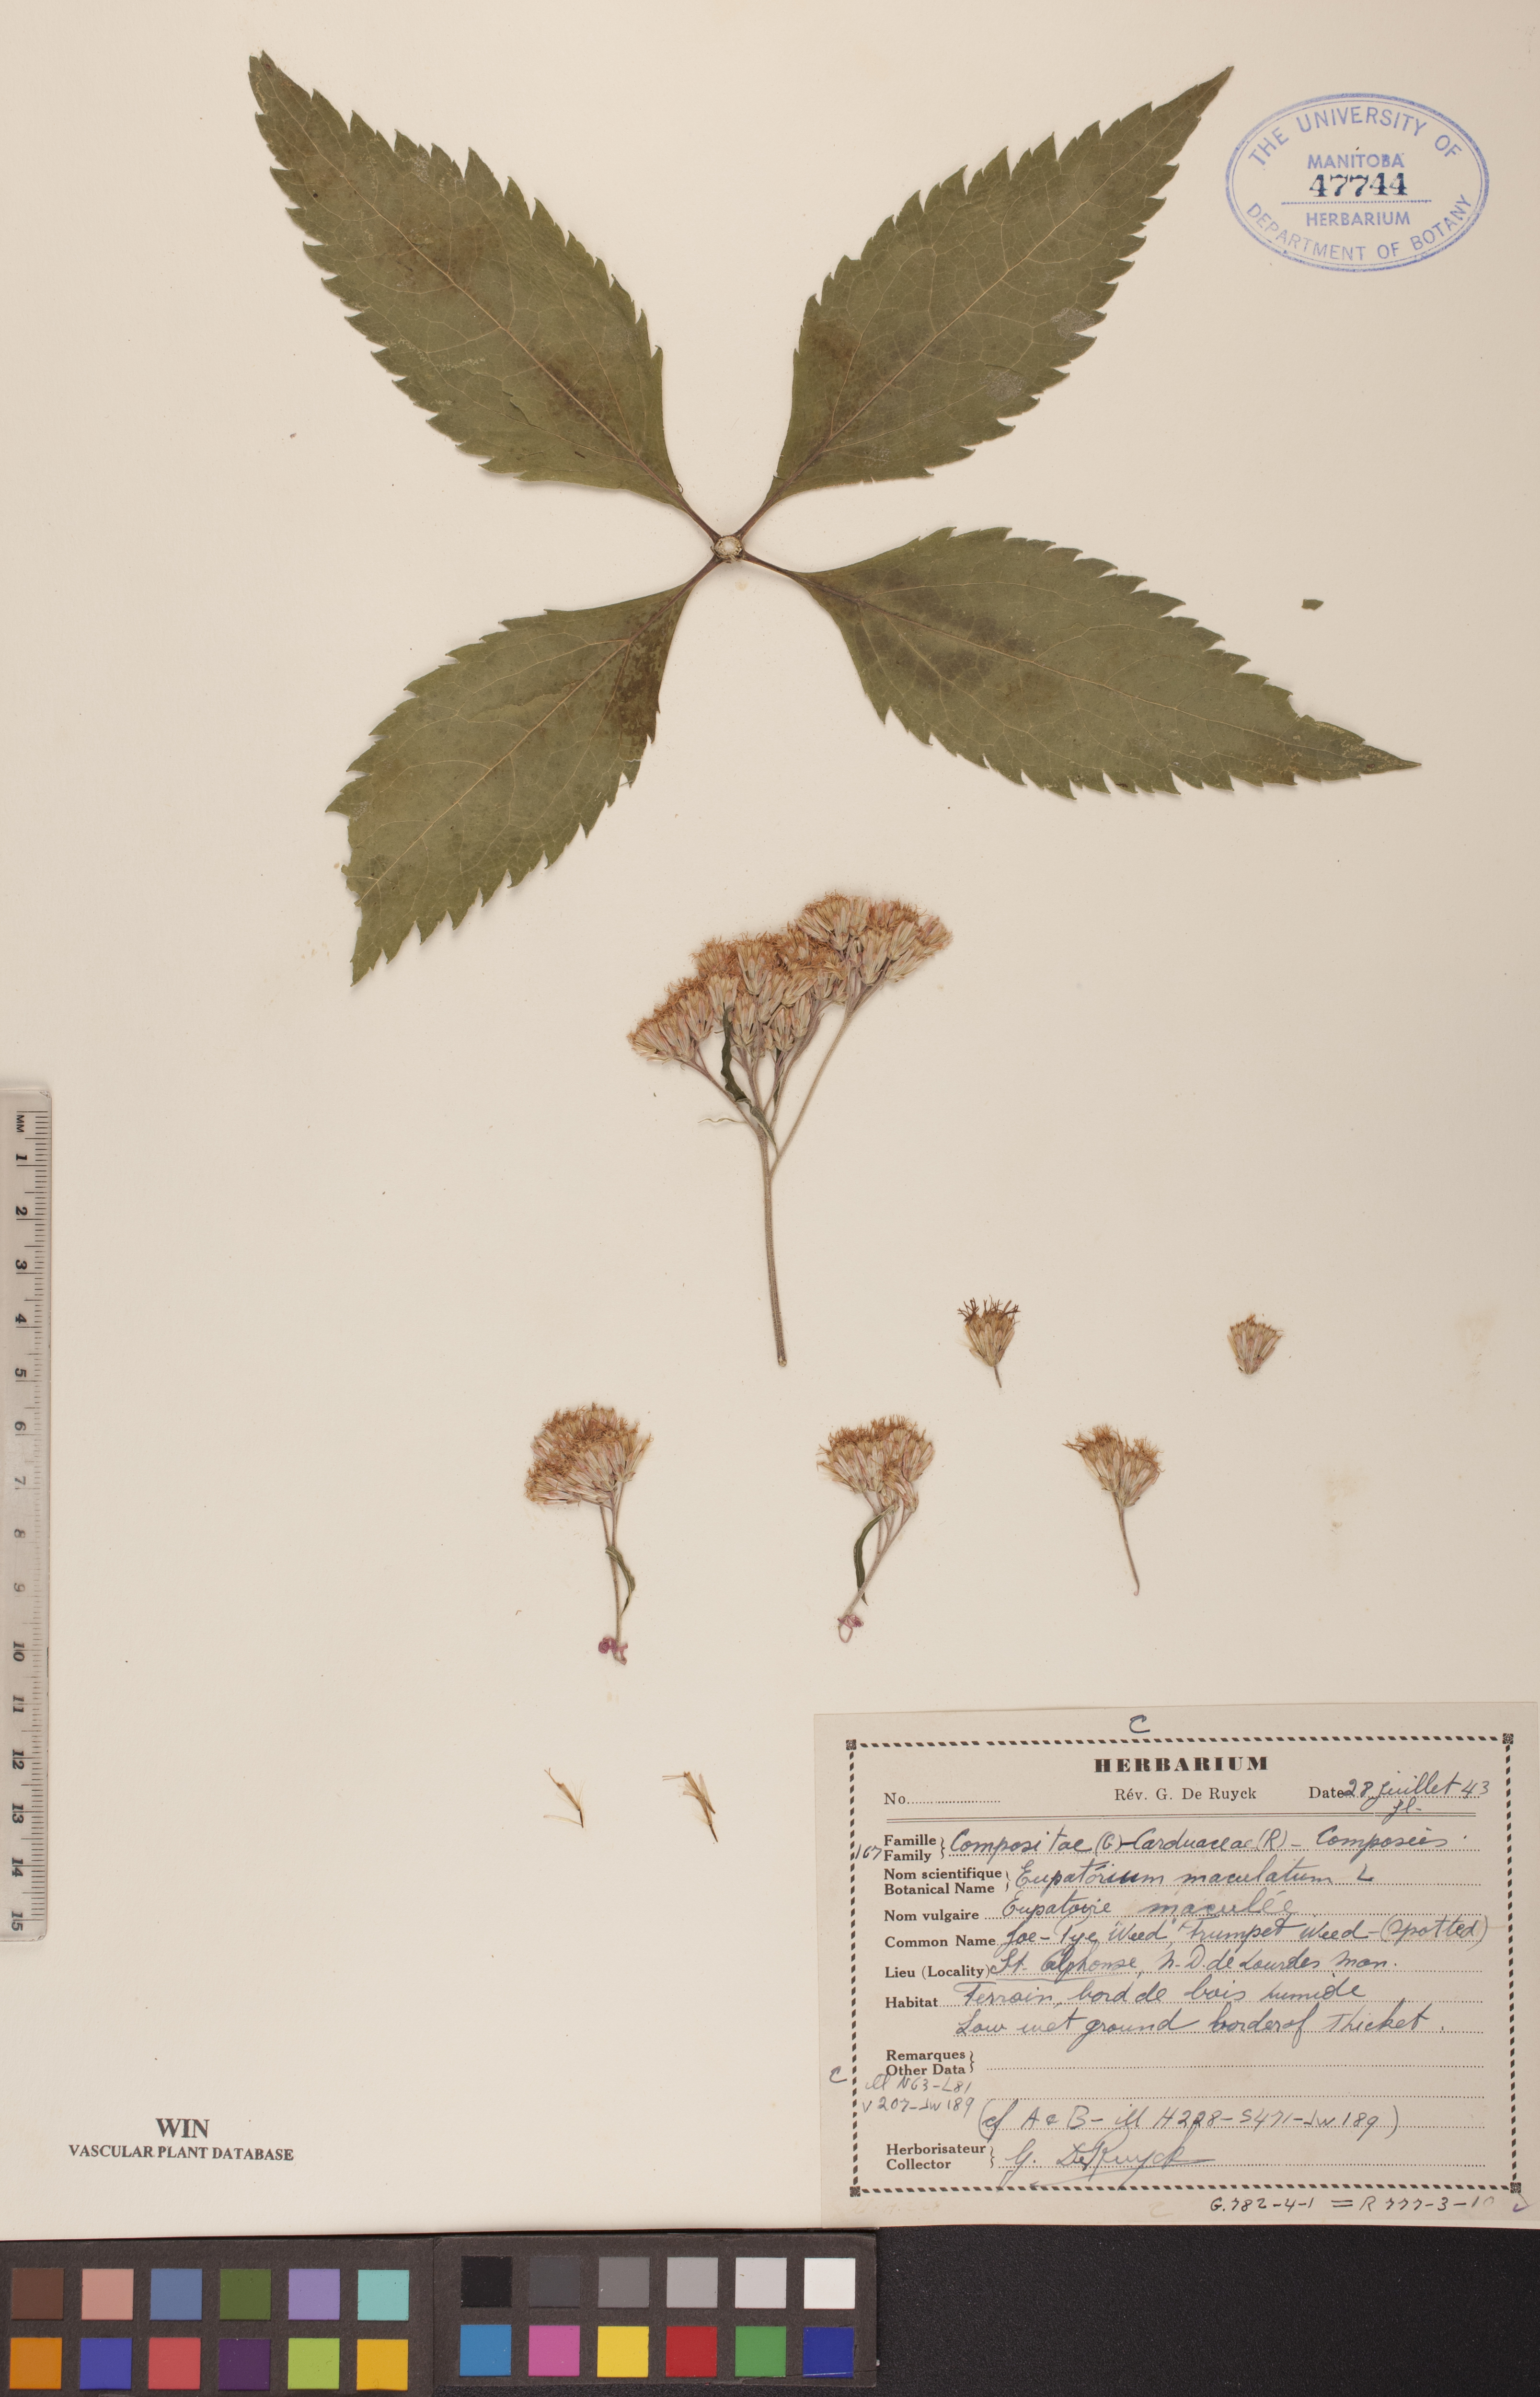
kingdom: Plantae
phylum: Tracheophyta
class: Magnoliopsida
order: Asterales
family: Asteraceae
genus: Eutrochium
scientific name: Eutrochium maculatum
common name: Spotted joe pye weed
